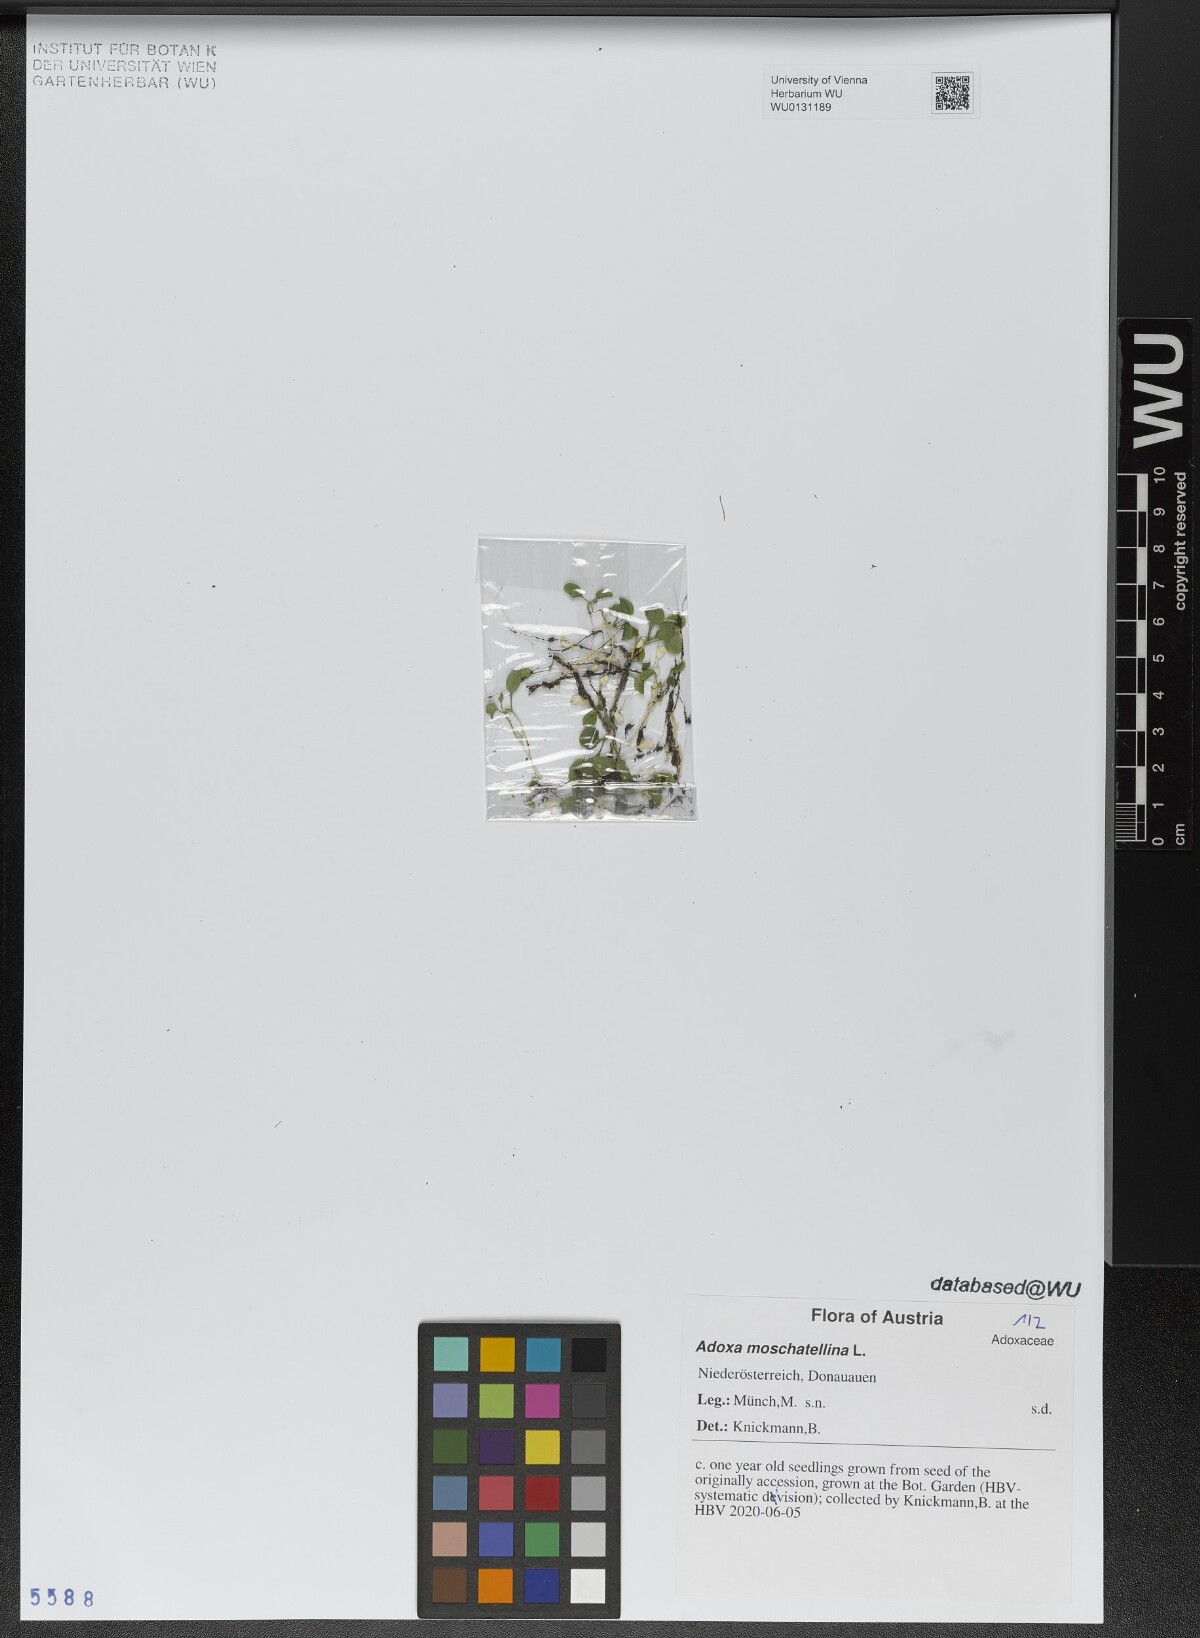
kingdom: Plantae
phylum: Tracheophyta
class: Magnoliopsida
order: Dipsacales
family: Viburnaceae
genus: Adoxa
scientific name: Adoxa moschatellina
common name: Moschatel
